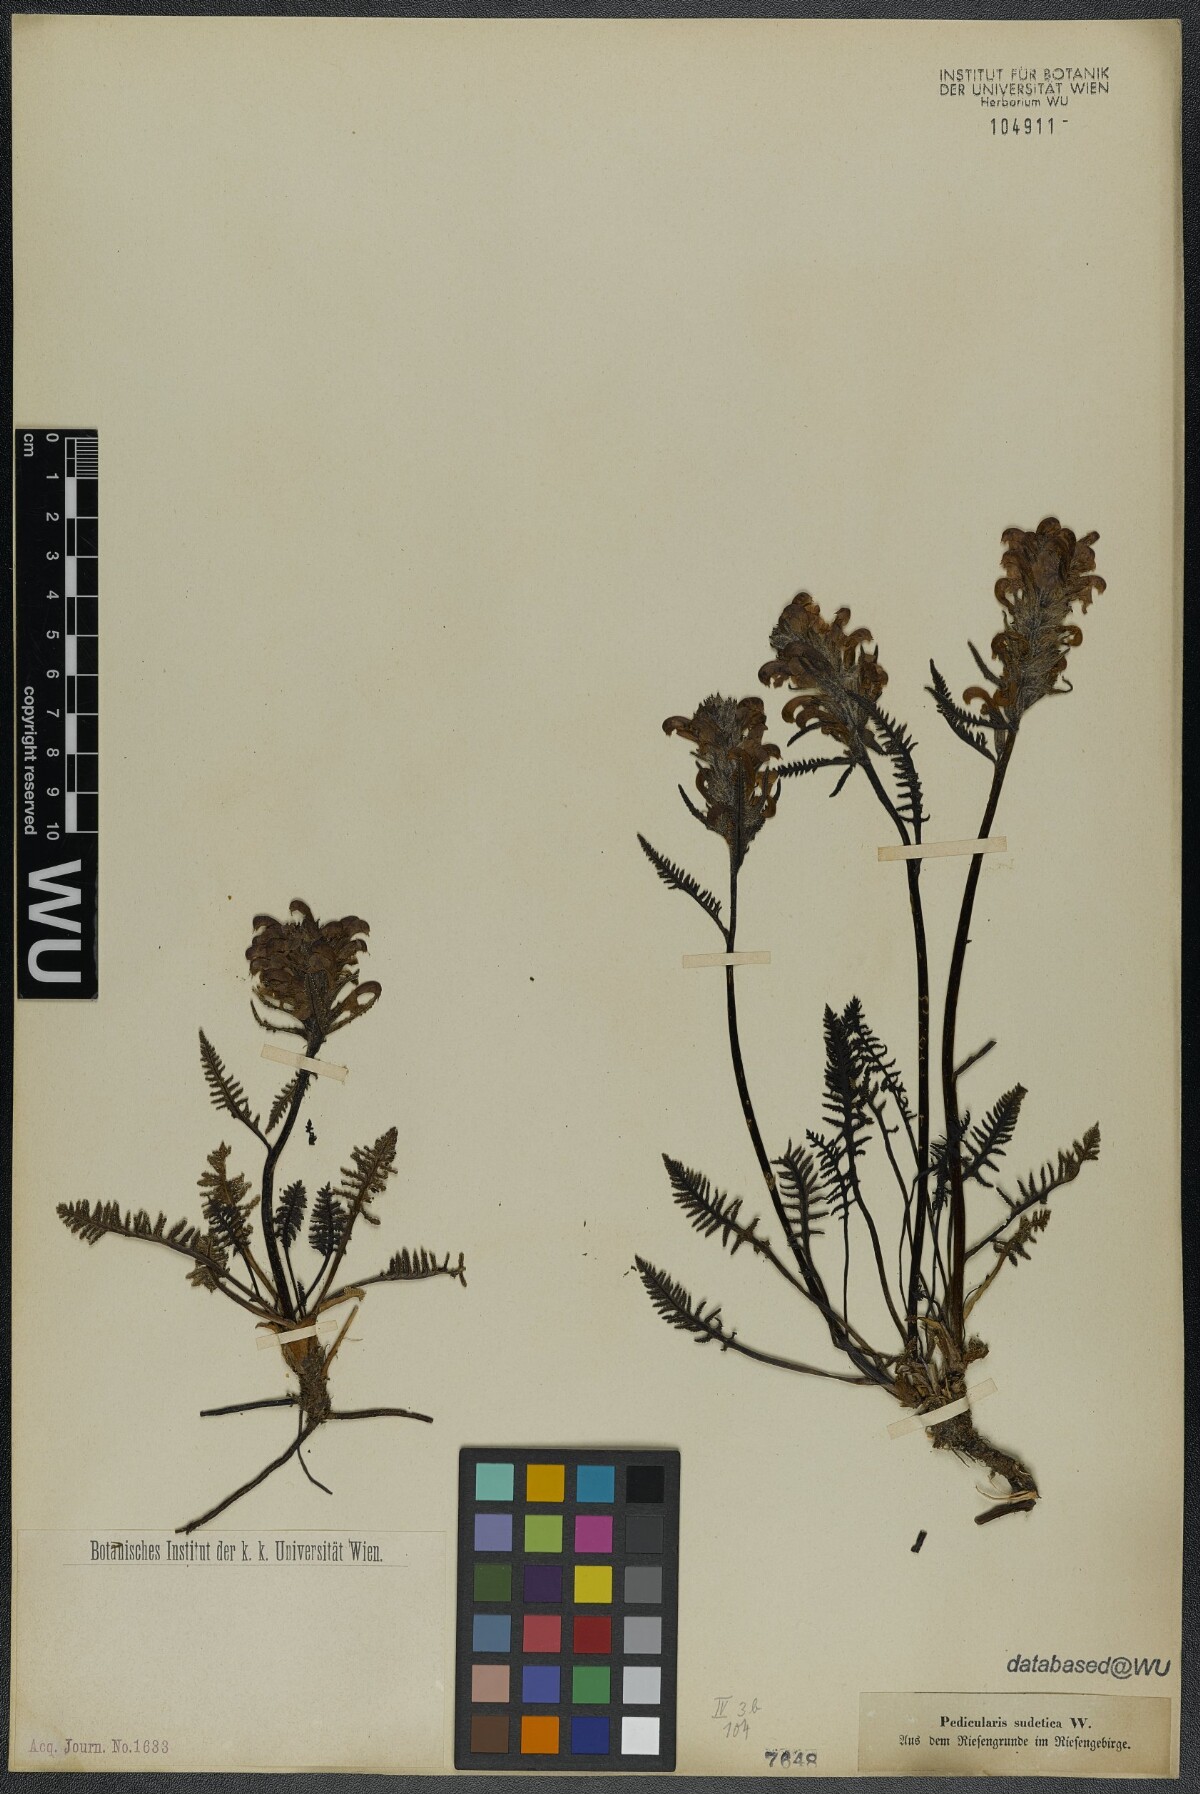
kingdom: Plantae
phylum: Tracheophyta
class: Magnoliopsida
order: Lamiales
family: Orobanchaceae
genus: Pedicularis
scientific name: Pedicularis sudetica
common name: Sudeten lousewort
